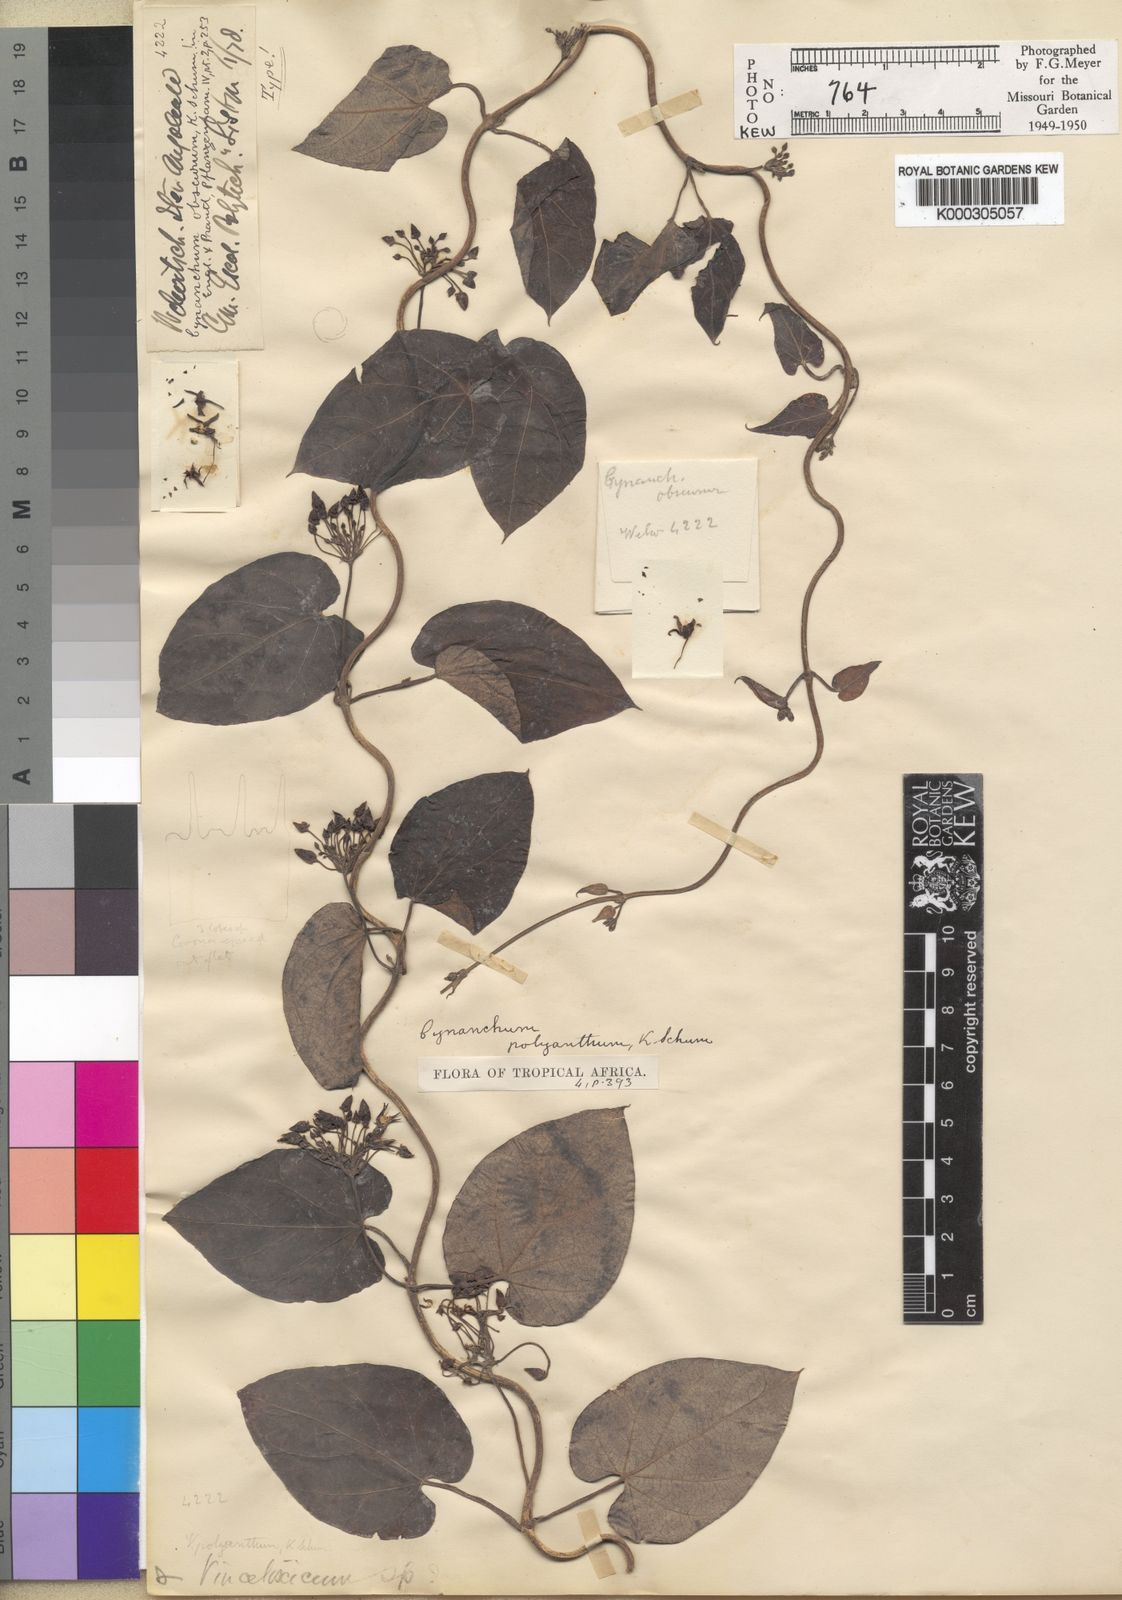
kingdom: Plantae
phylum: Tracheophyta
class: Magnoliopsida
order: Gentianales
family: Apocynaceae
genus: Cynanchum
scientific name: Cynanchum polyanthum
